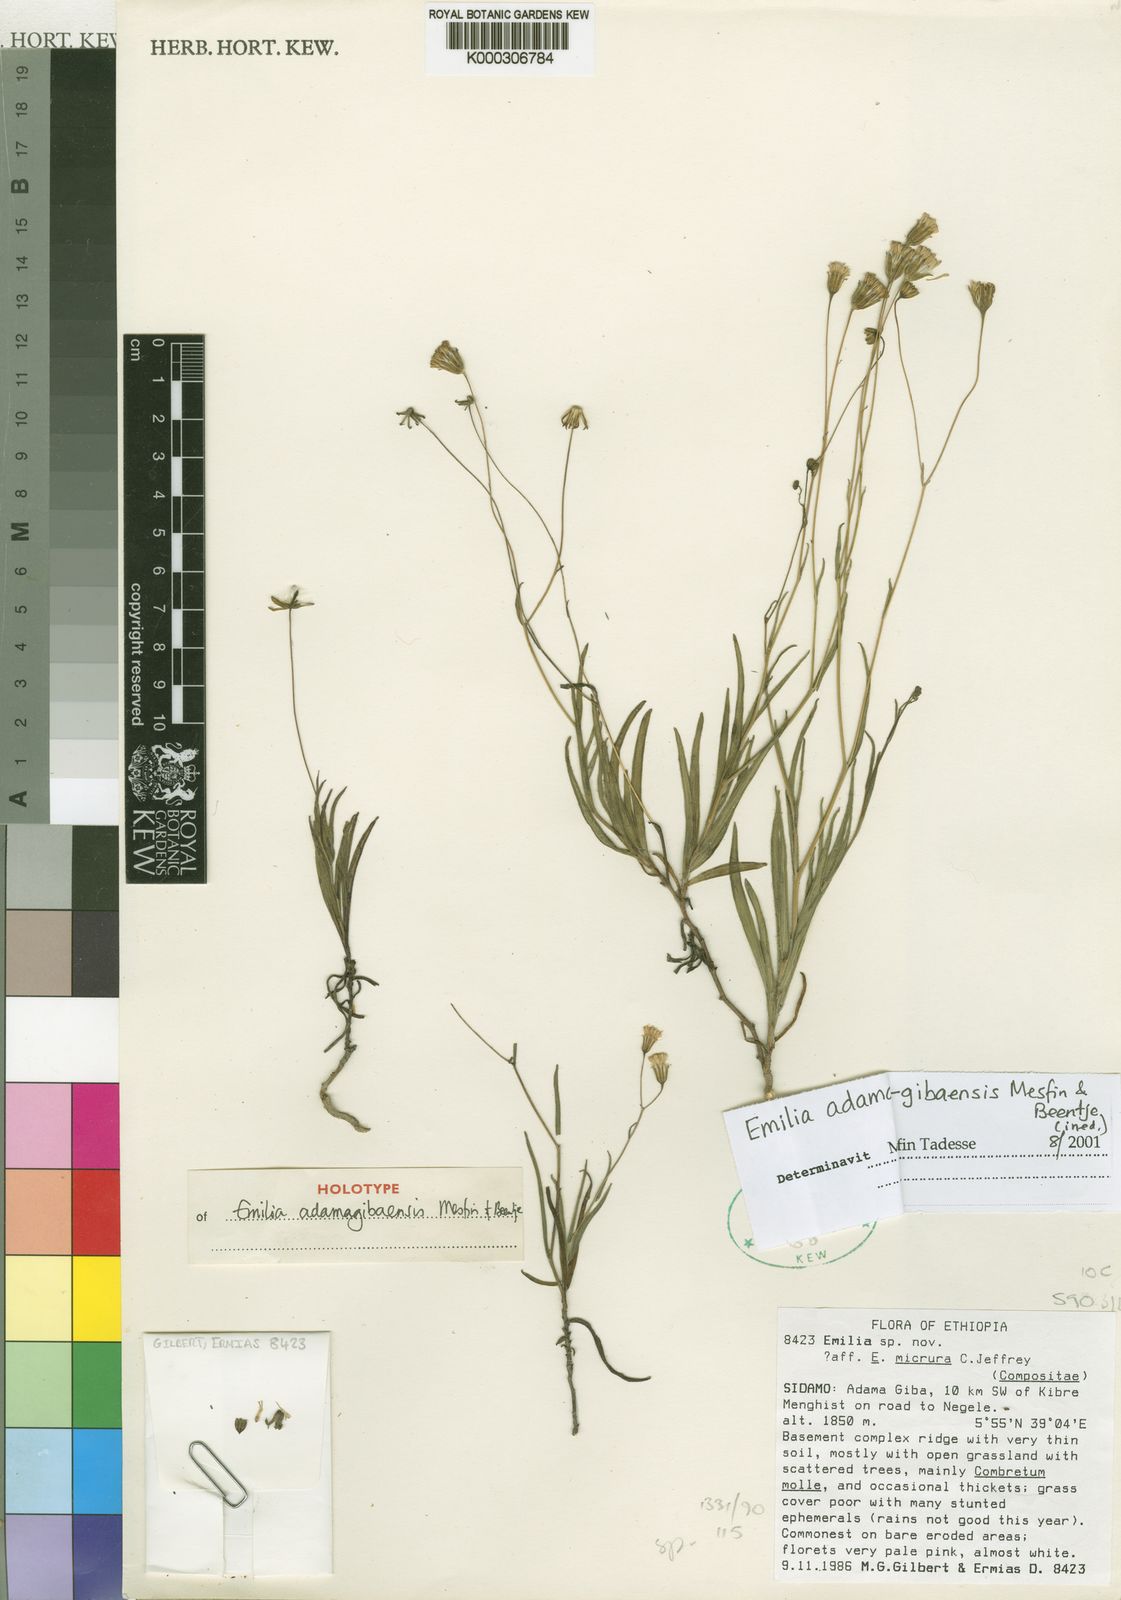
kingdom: Plantae
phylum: Tracheophyta
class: Magnoliopsida
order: Asterales
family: Asteraceae
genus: Emilia
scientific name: Emilia adamagibaensis
